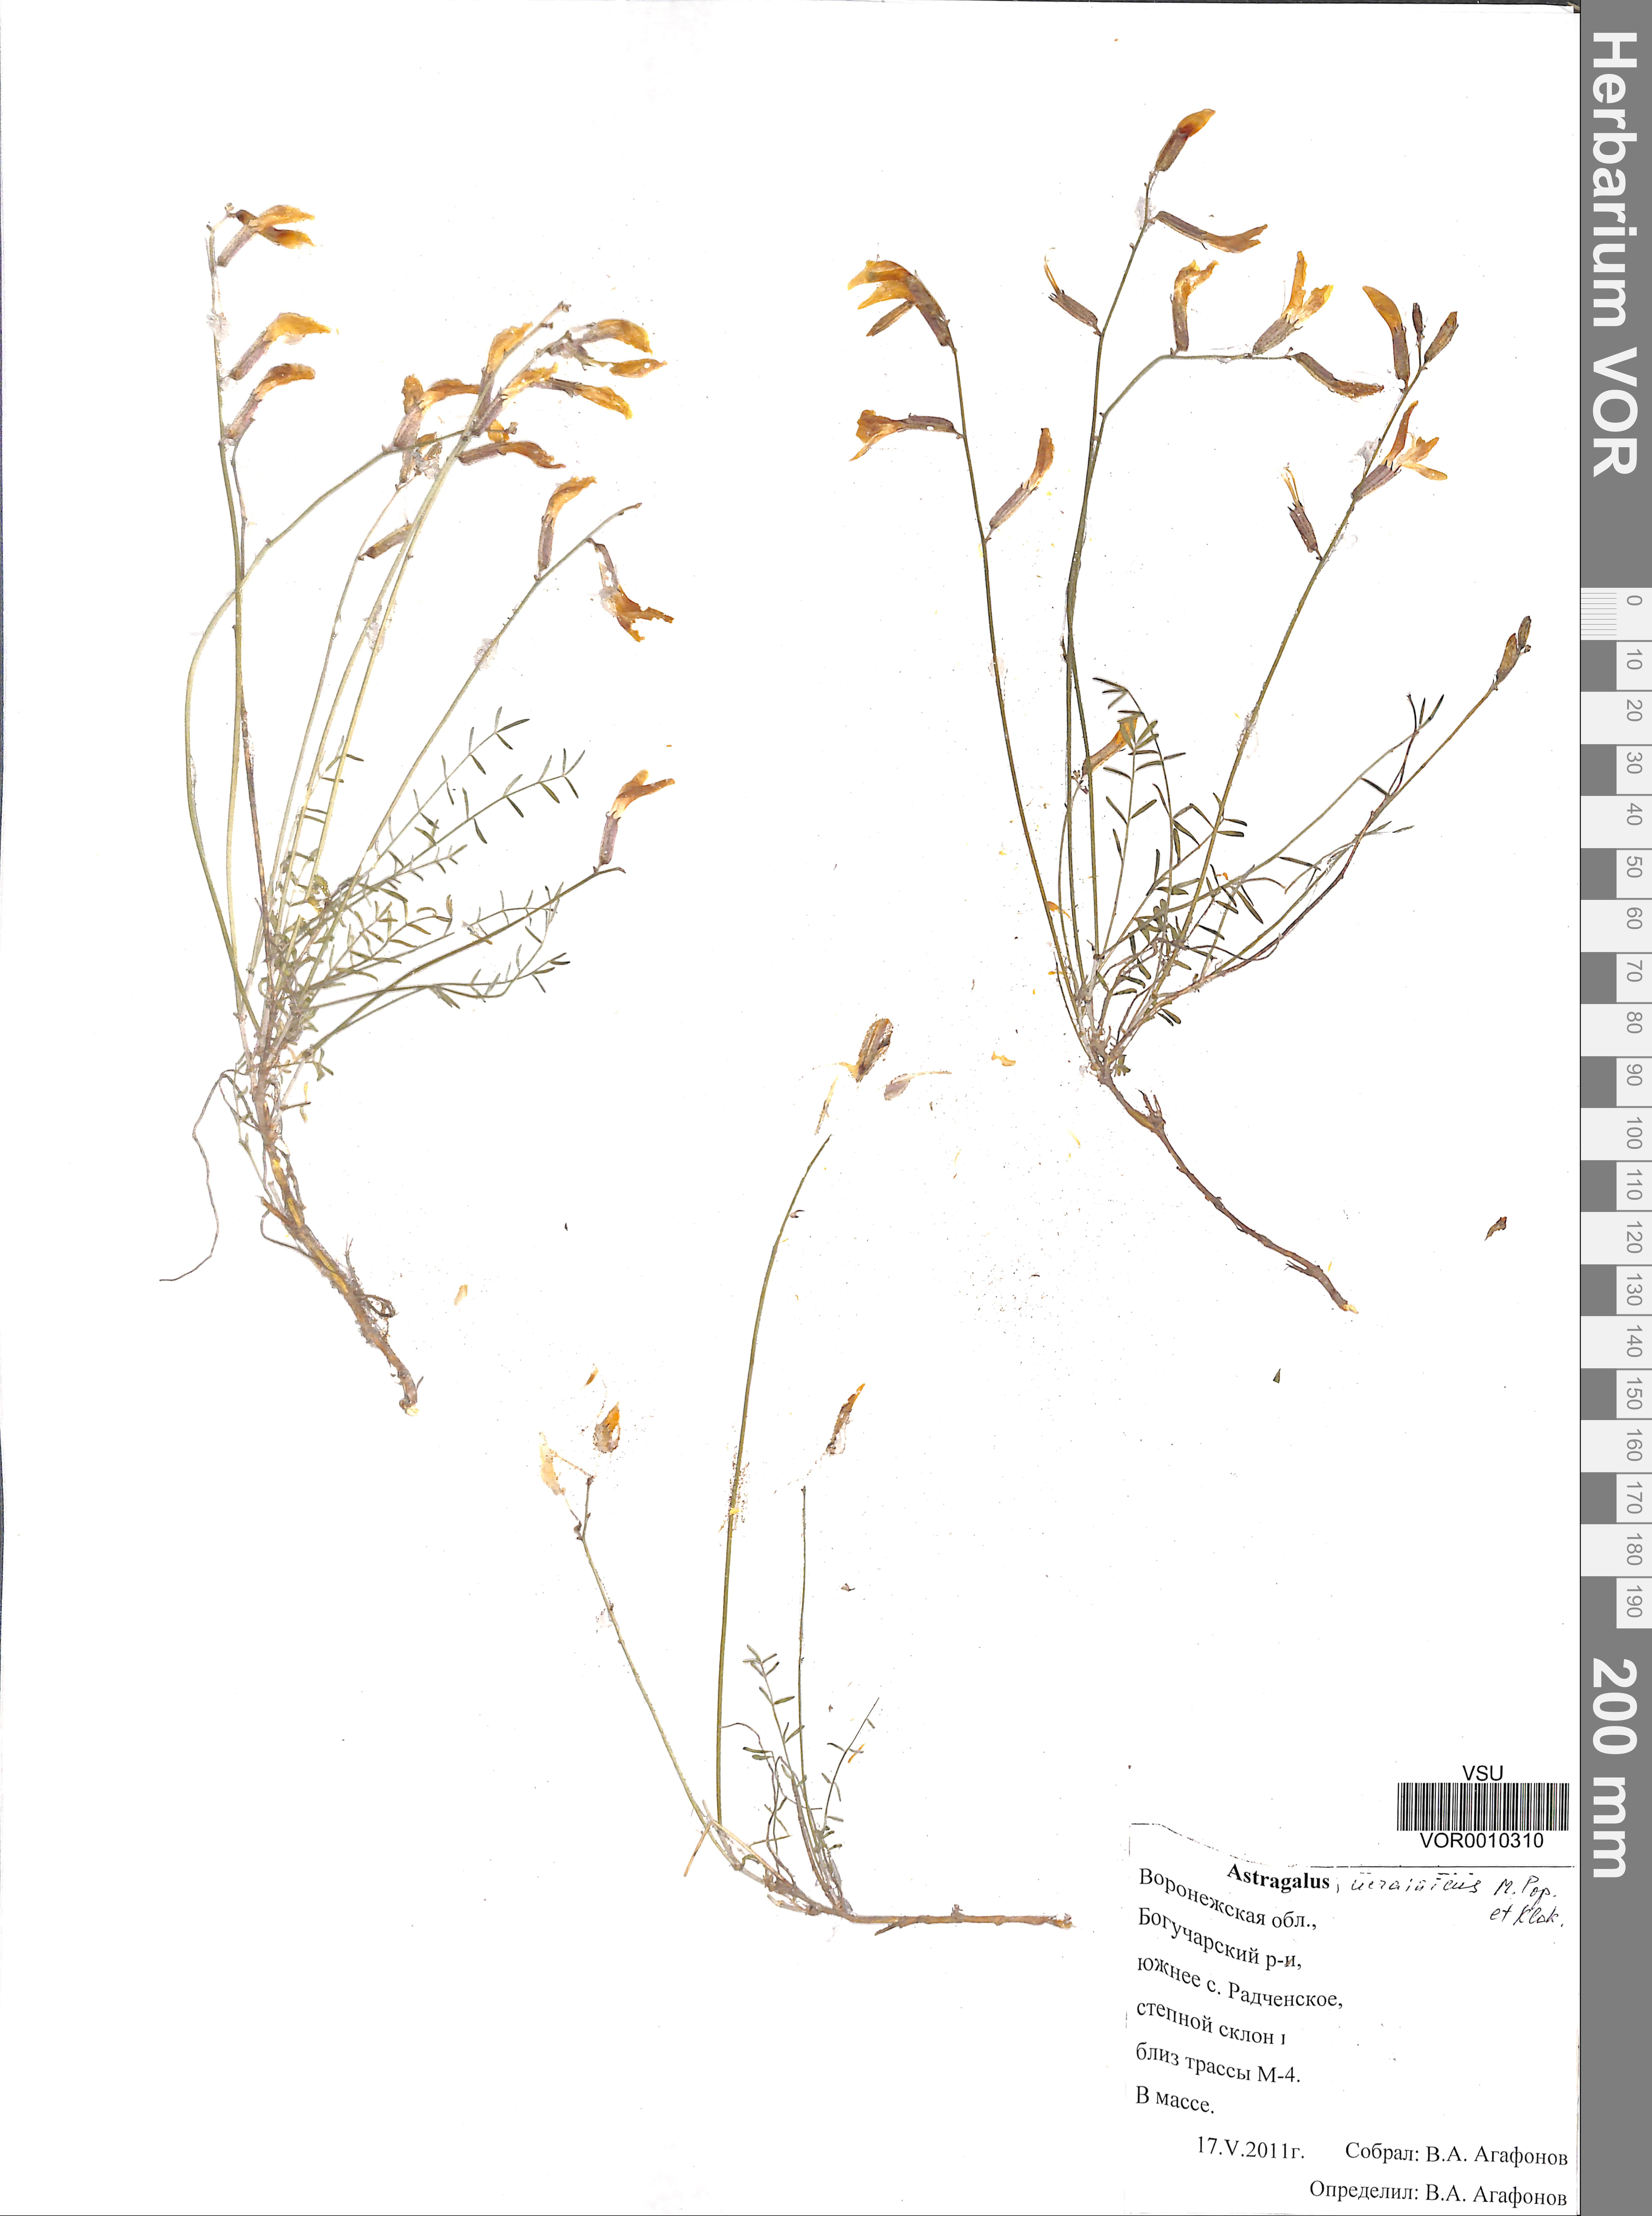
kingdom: Plantae
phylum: Tracheophyta
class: Magnoliopsida
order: Fabales
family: Fabaceae
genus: Astragalus
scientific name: Astragalus ucrainicus
